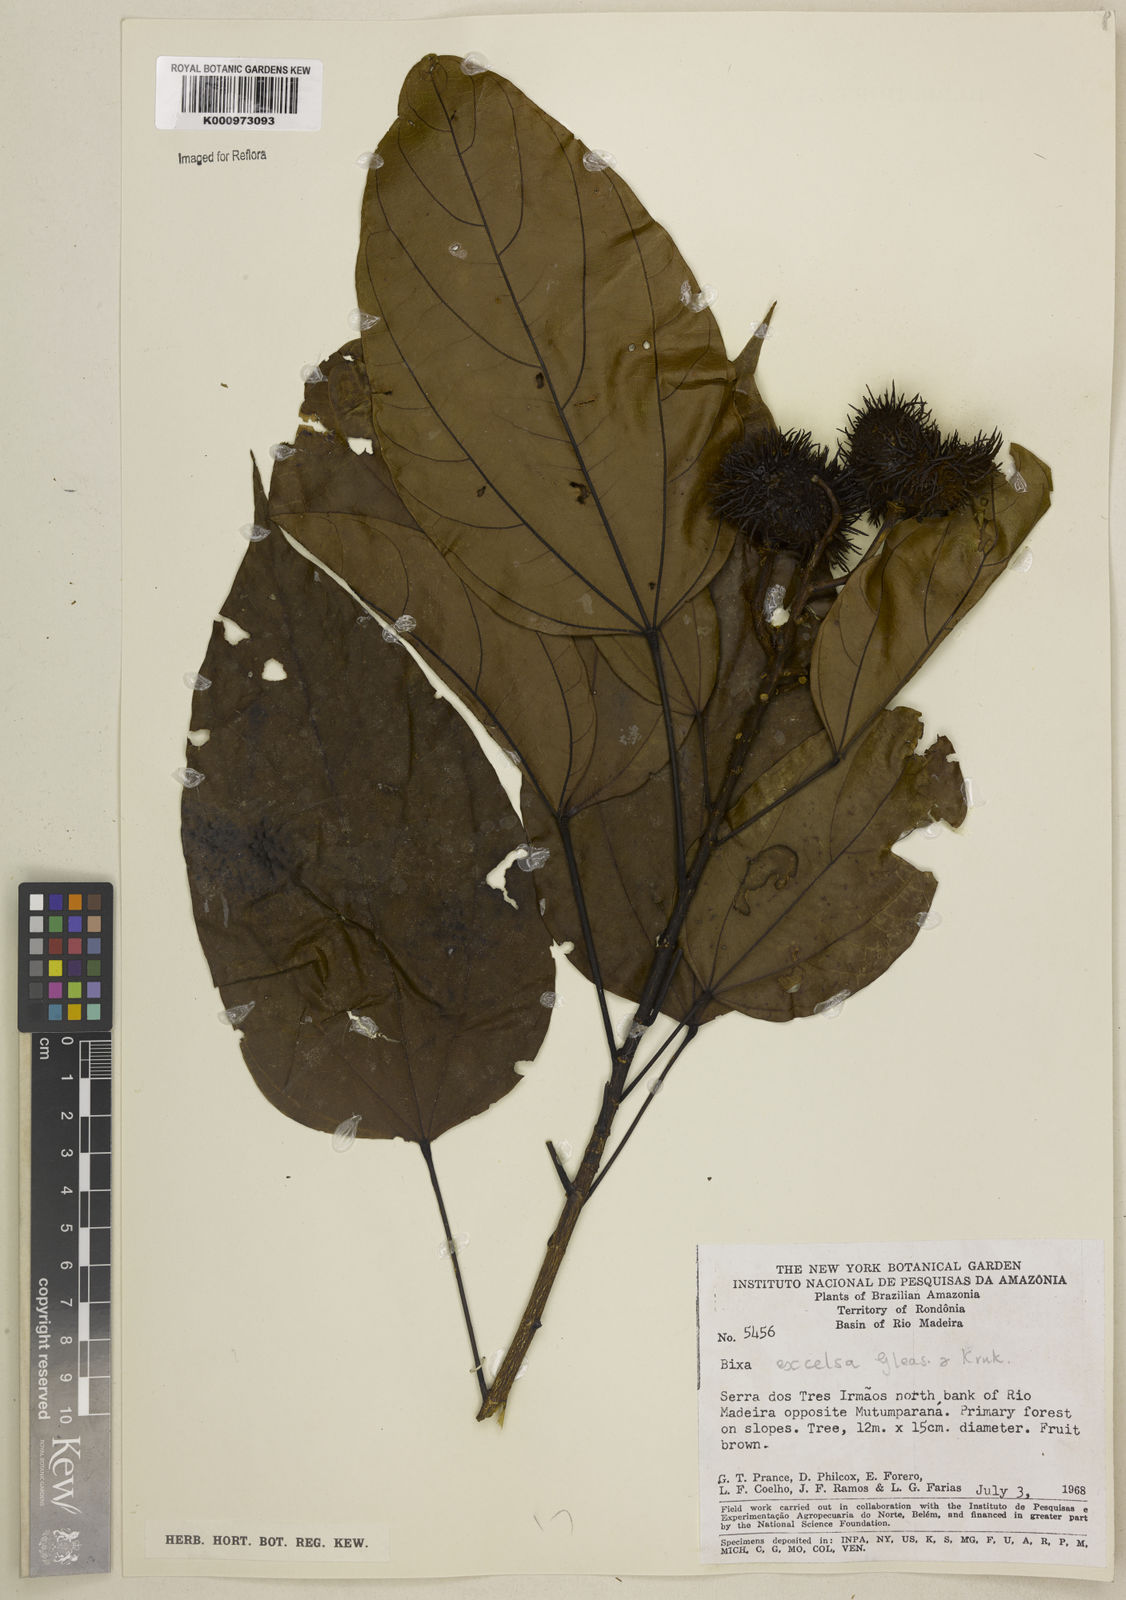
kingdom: Plantae
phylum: Tracheophyta
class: Magnoliopsida
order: Malvales
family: Bixaceae
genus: Bixa
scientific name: Bixa excelsa
